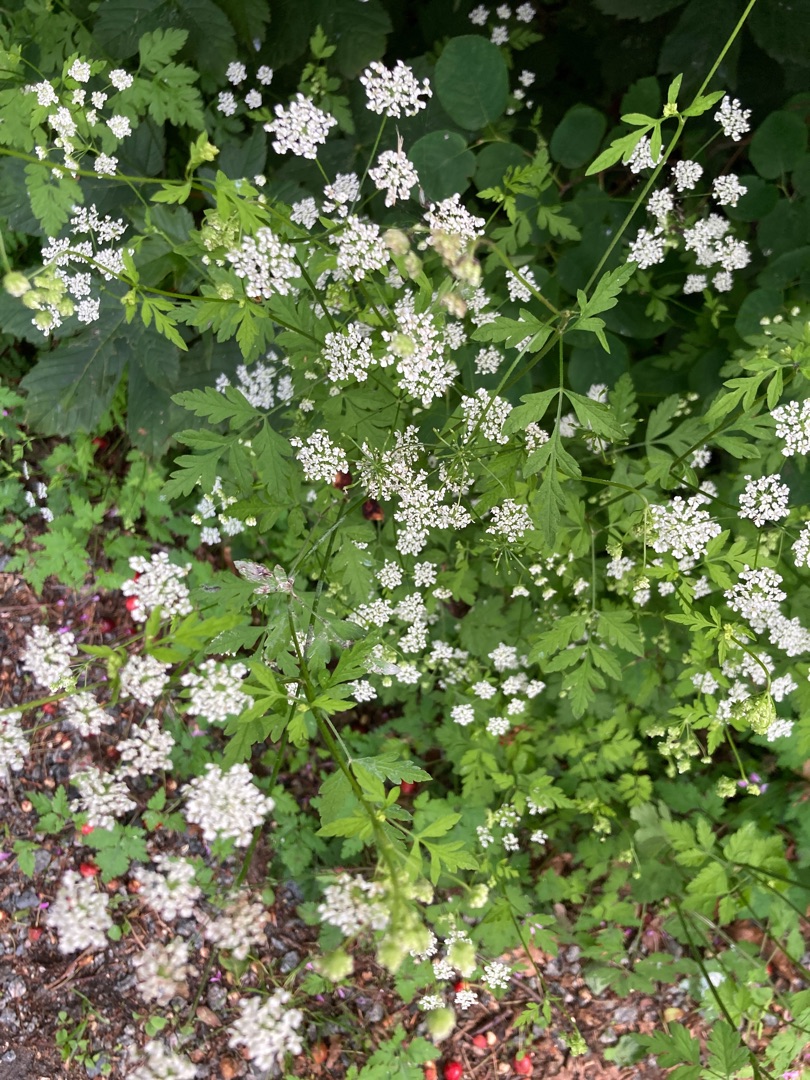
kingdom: Plantae
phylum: Tracheophyta
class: Magnoliopsida
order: Apiales
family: Apiaceae
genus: Chaerophyllum
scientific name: Chaerophyllum temulum
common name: Almindelig hulsvøb
